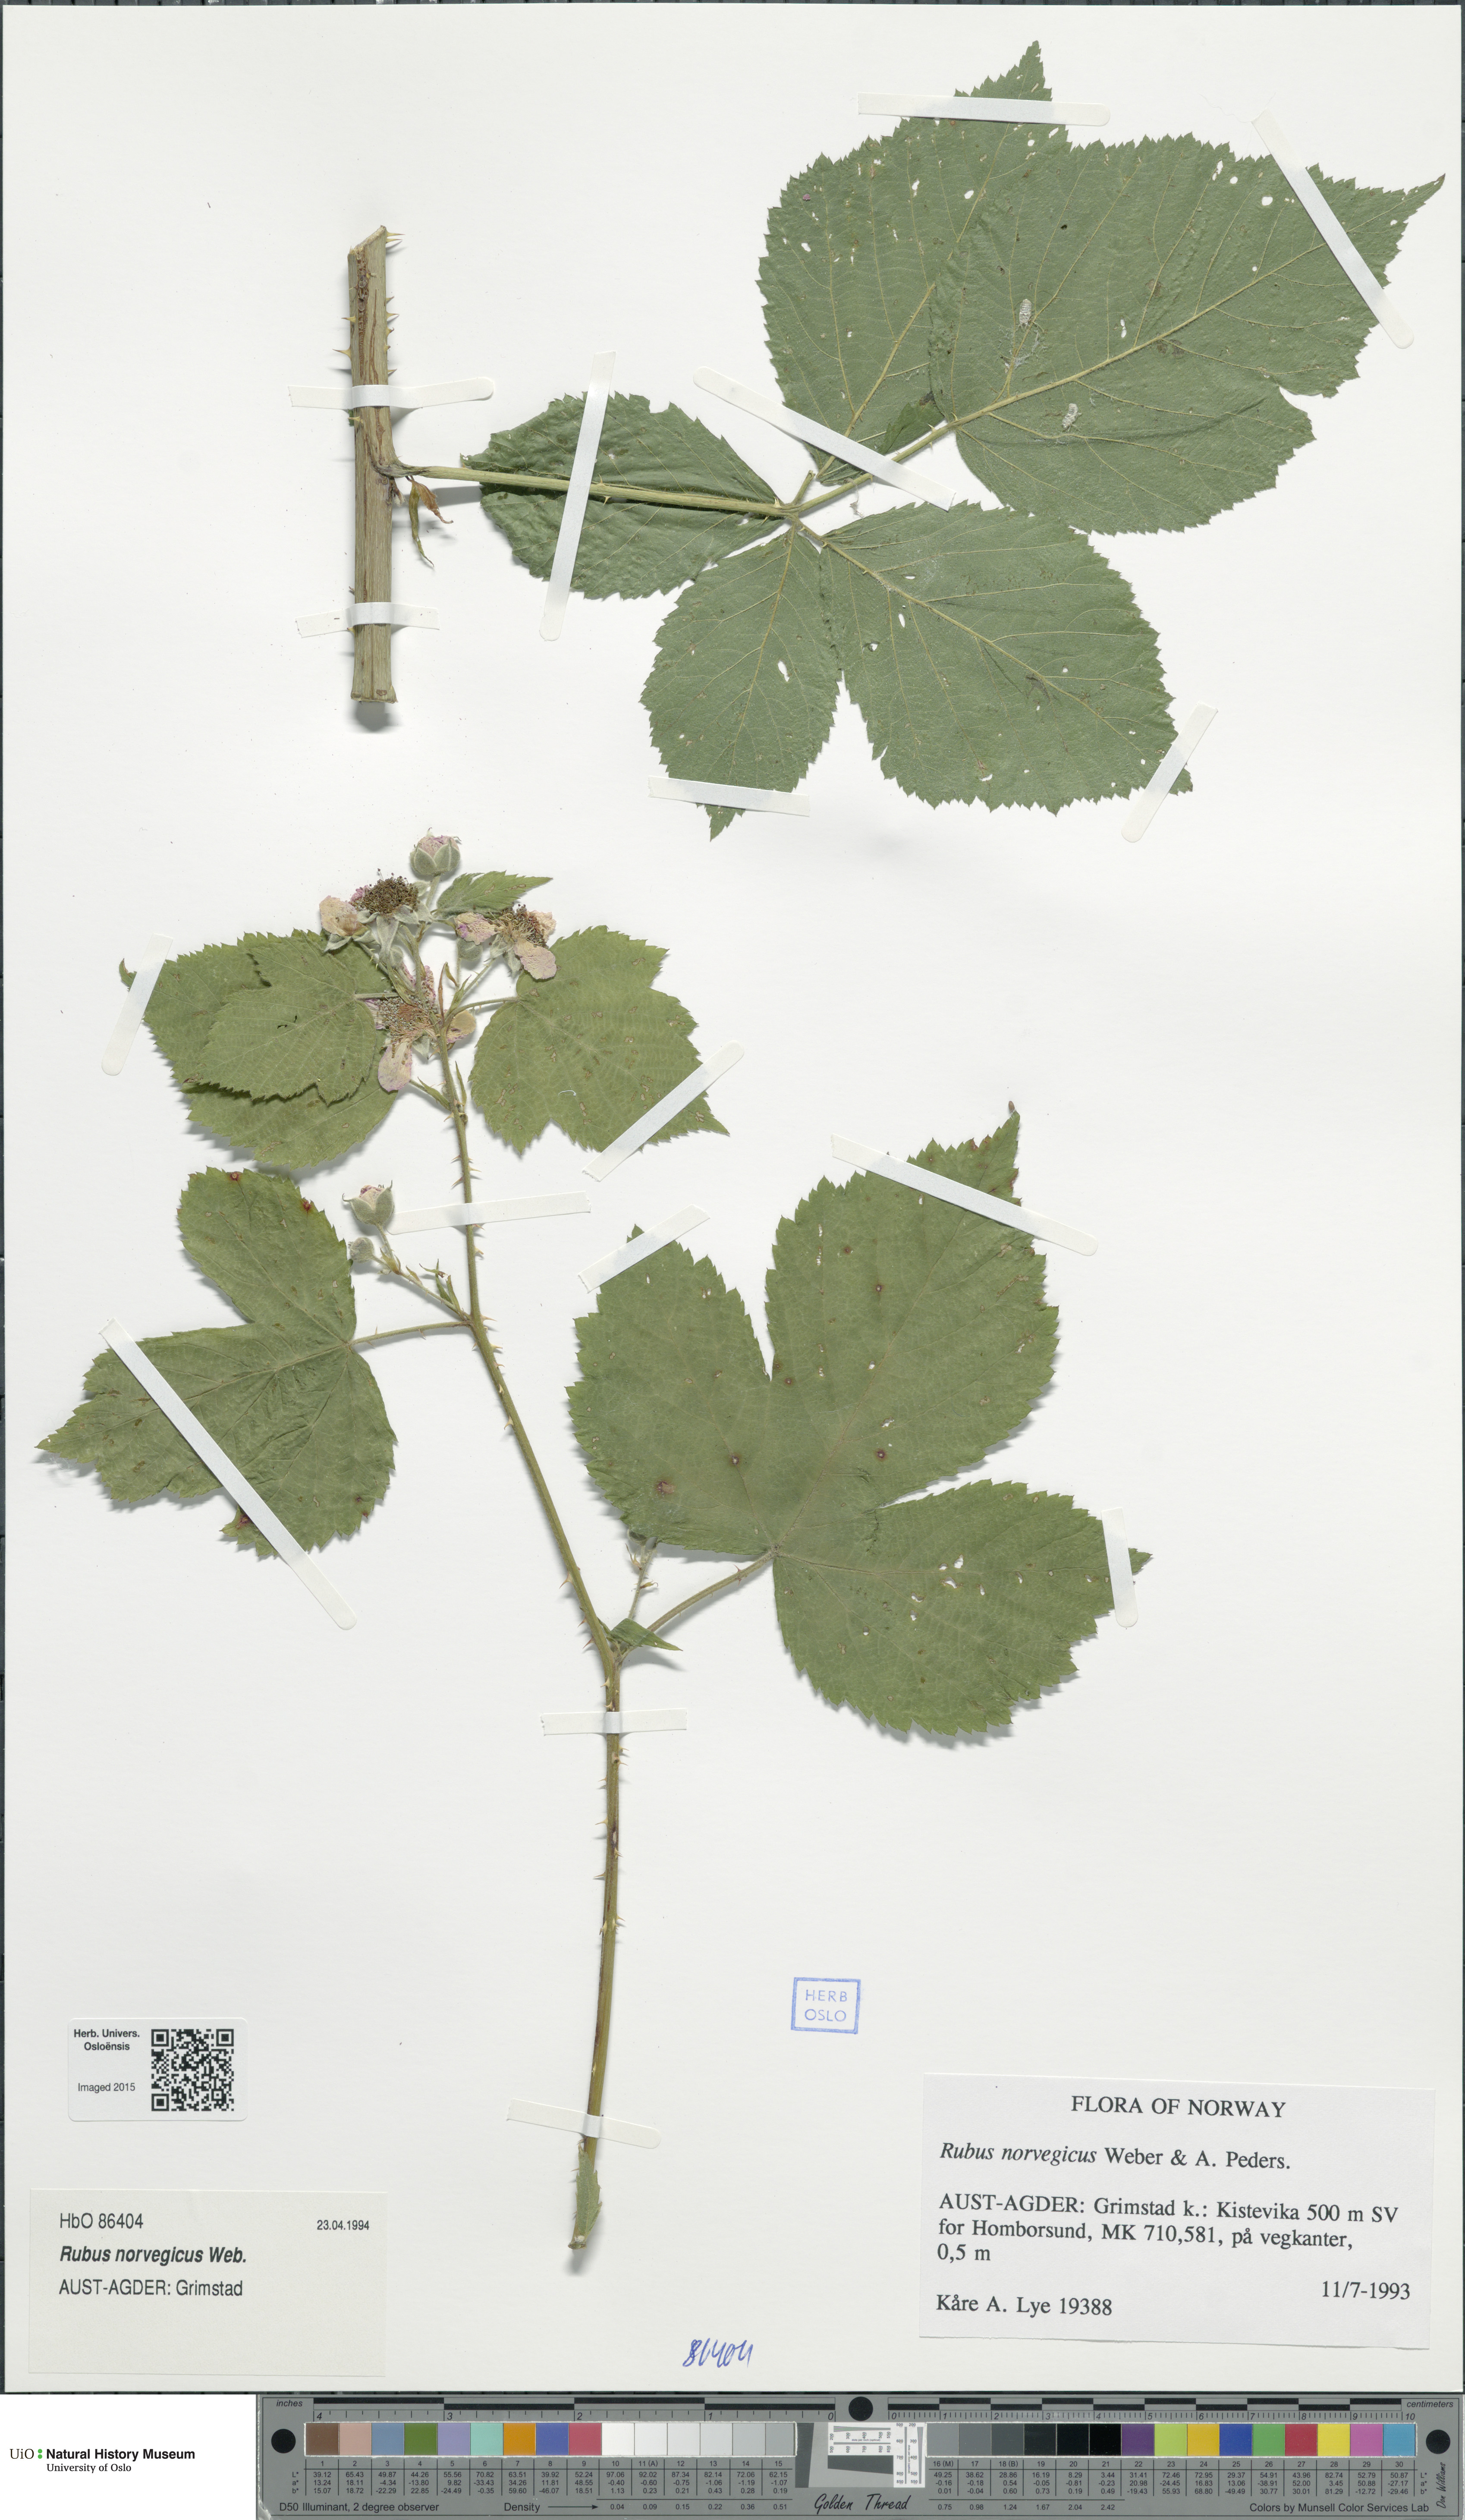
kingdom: Plantae
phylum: Tracheophyta
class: Magnoliopsida
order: Rosales
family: Rosaceae
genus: Rubus
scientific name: Rubus norvegicus
